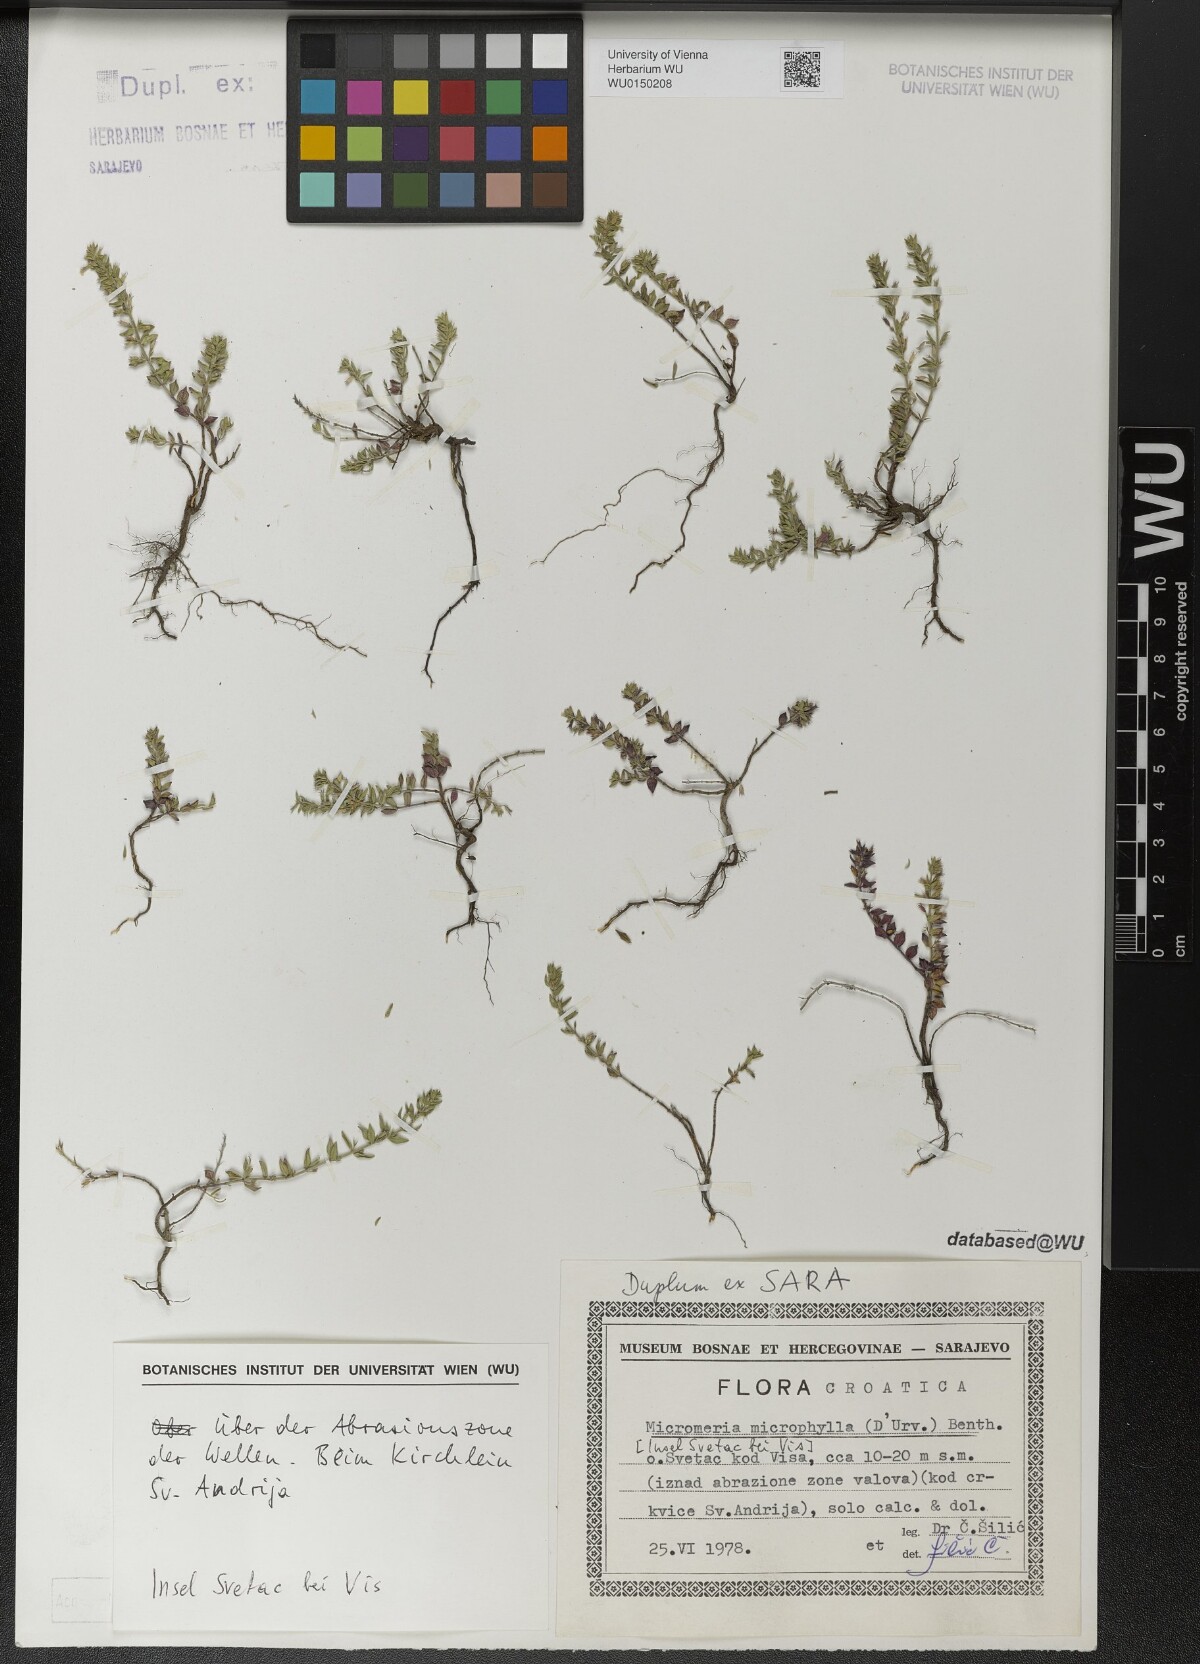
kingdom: Plantae
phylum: Tracheophyta
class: Magnoliopsida
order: Lamiales
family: Lamiaceae
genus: Micromeria
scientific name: Micromeria microphylla
